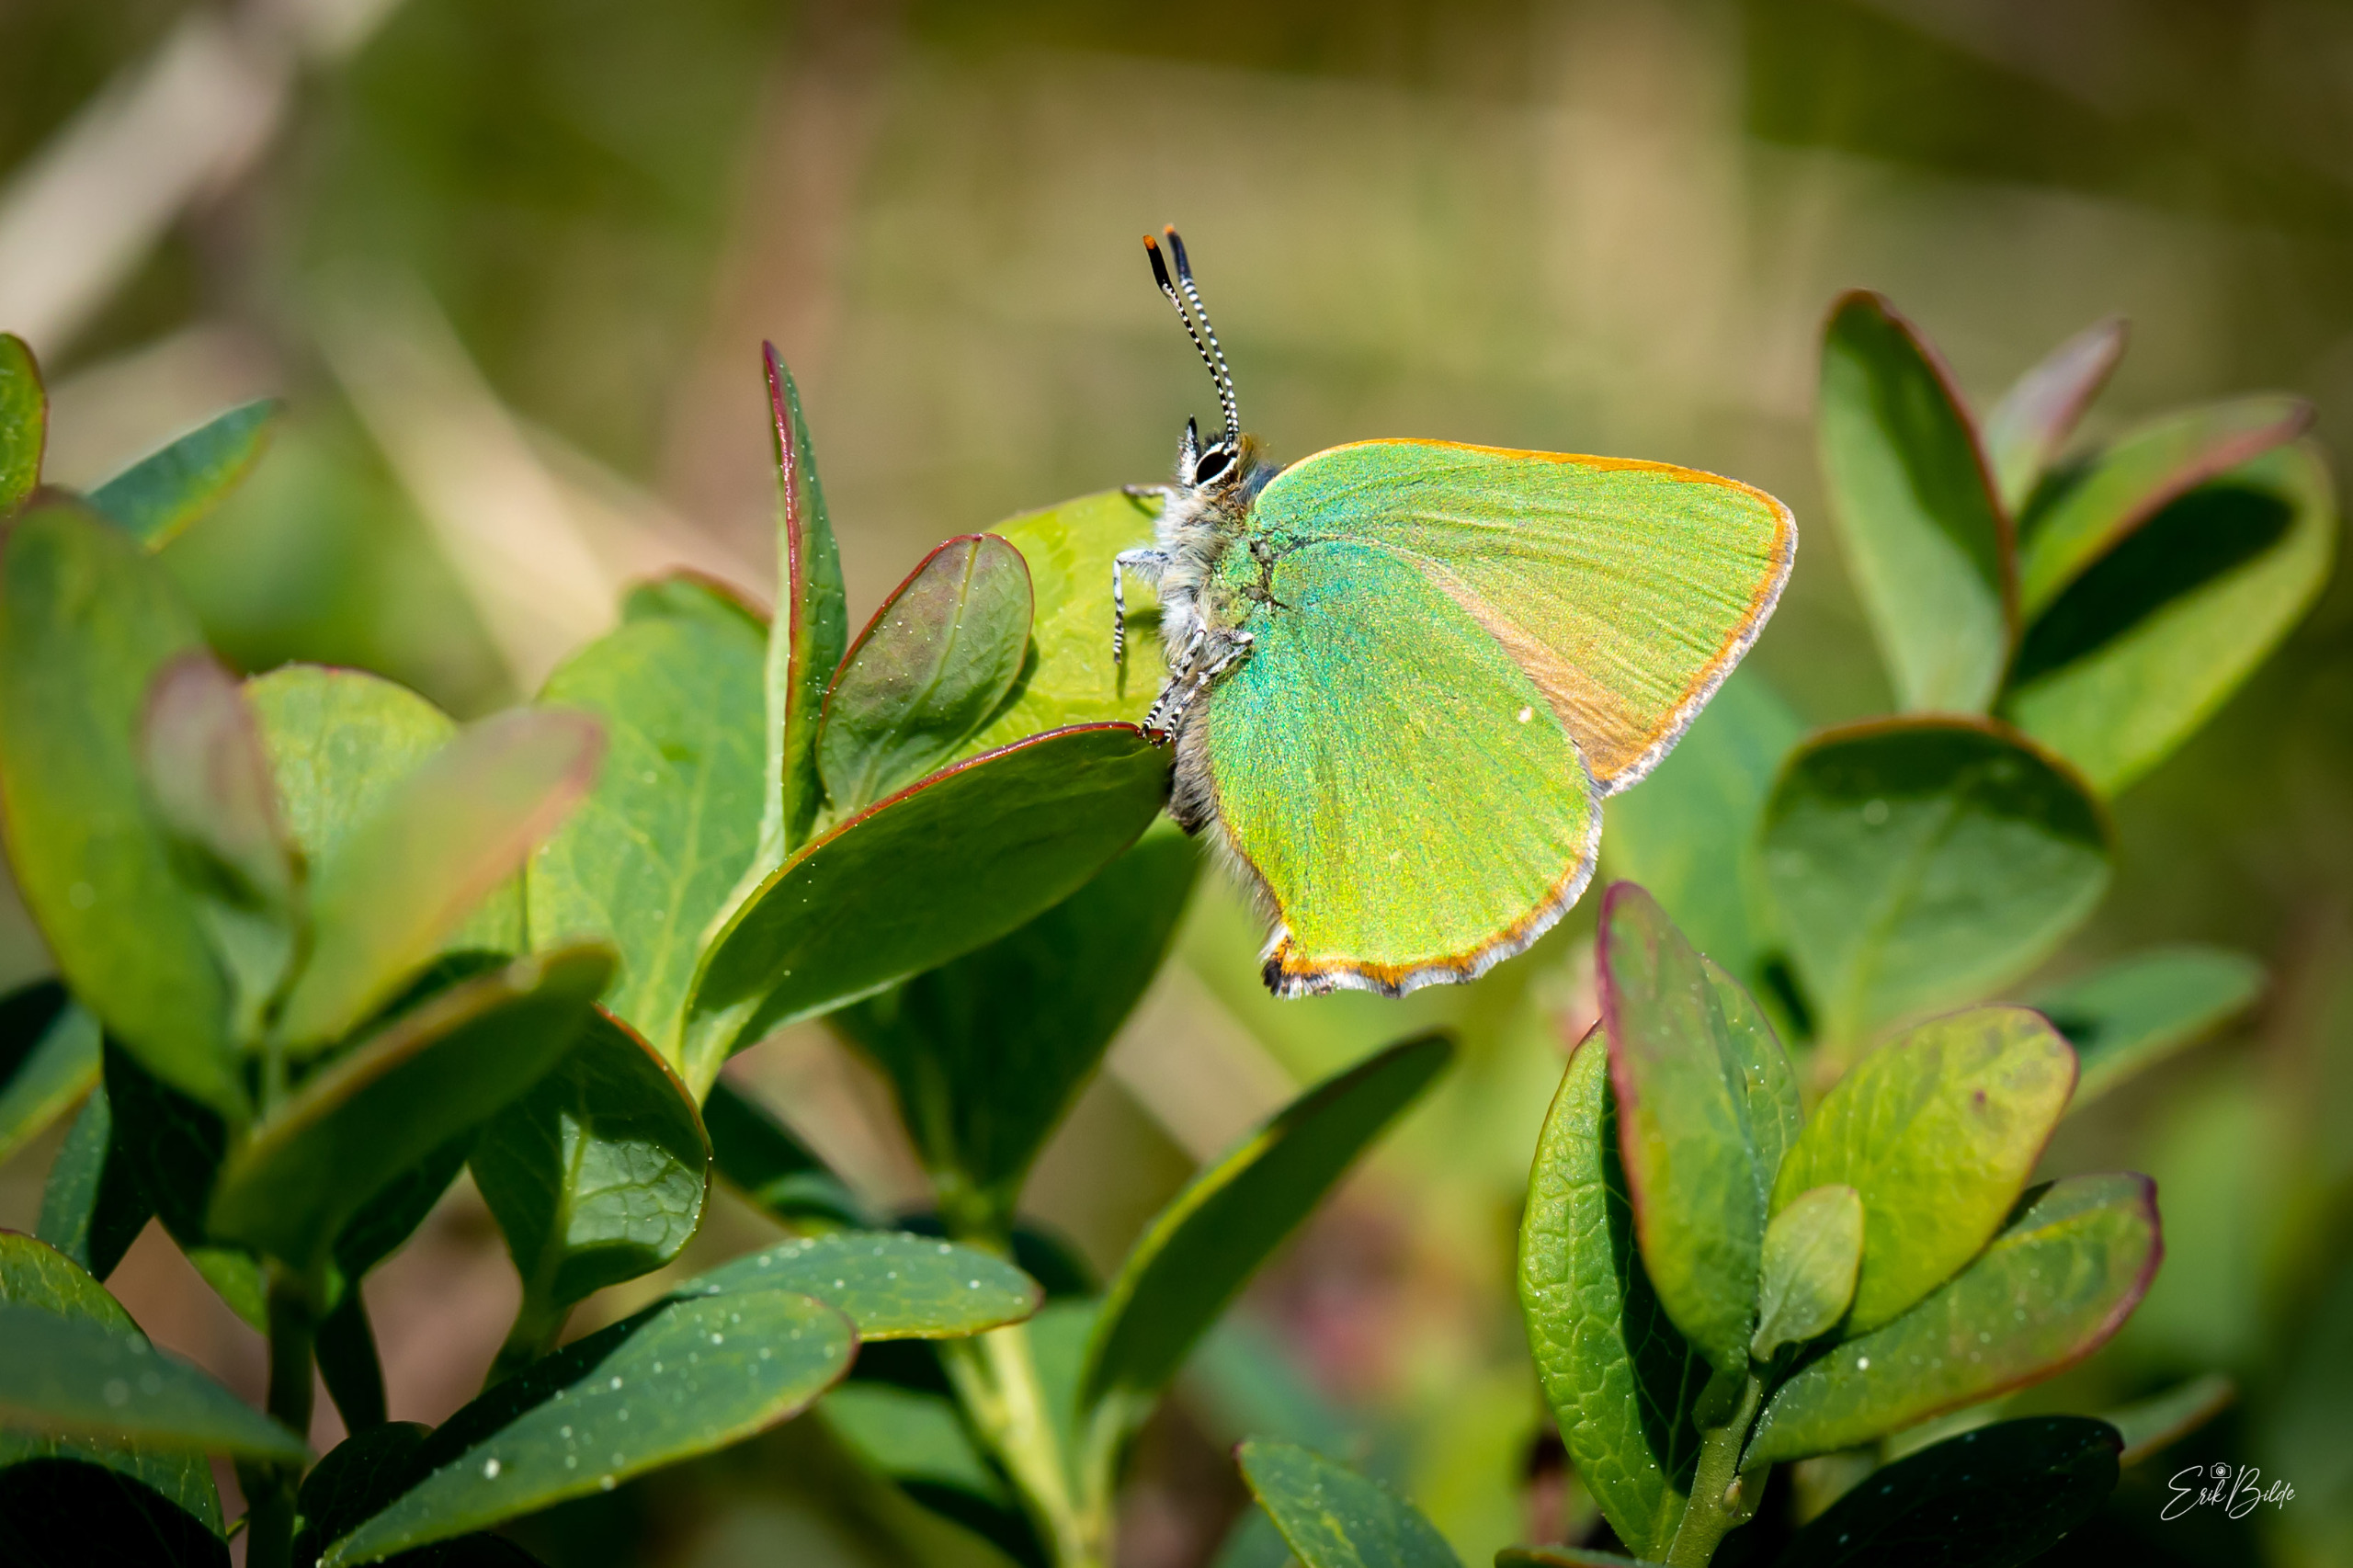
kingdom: Animalia
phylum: Arthropoda
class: Insecta
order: Lepidoptera
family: Lycaenidae
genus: Callophrys
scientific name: Callophrys rubi
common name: Grøn busksommerfugl
